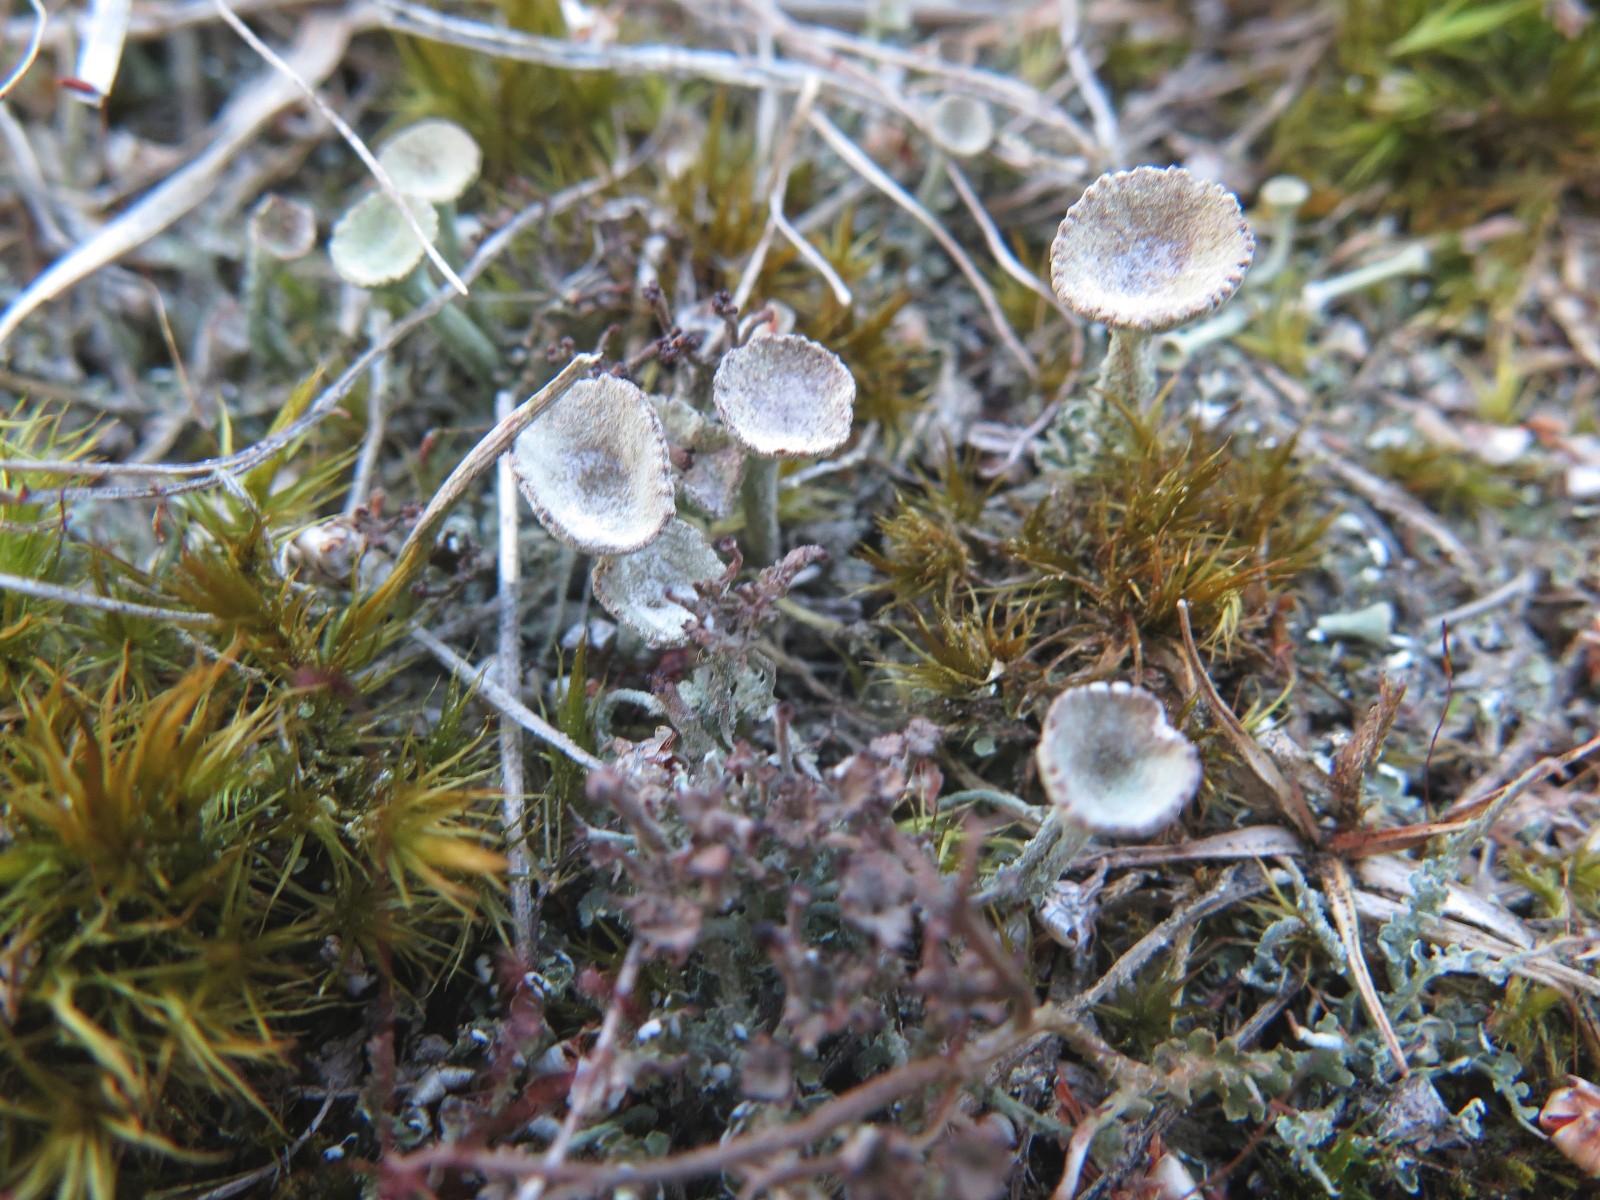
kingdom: Fungi
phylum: Ascomycota
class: Lecanoromycetes
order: Lecanorales
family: Cladoniaceae
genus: Cladonia
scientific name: Cladonia
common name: brungrøn bægerlav
